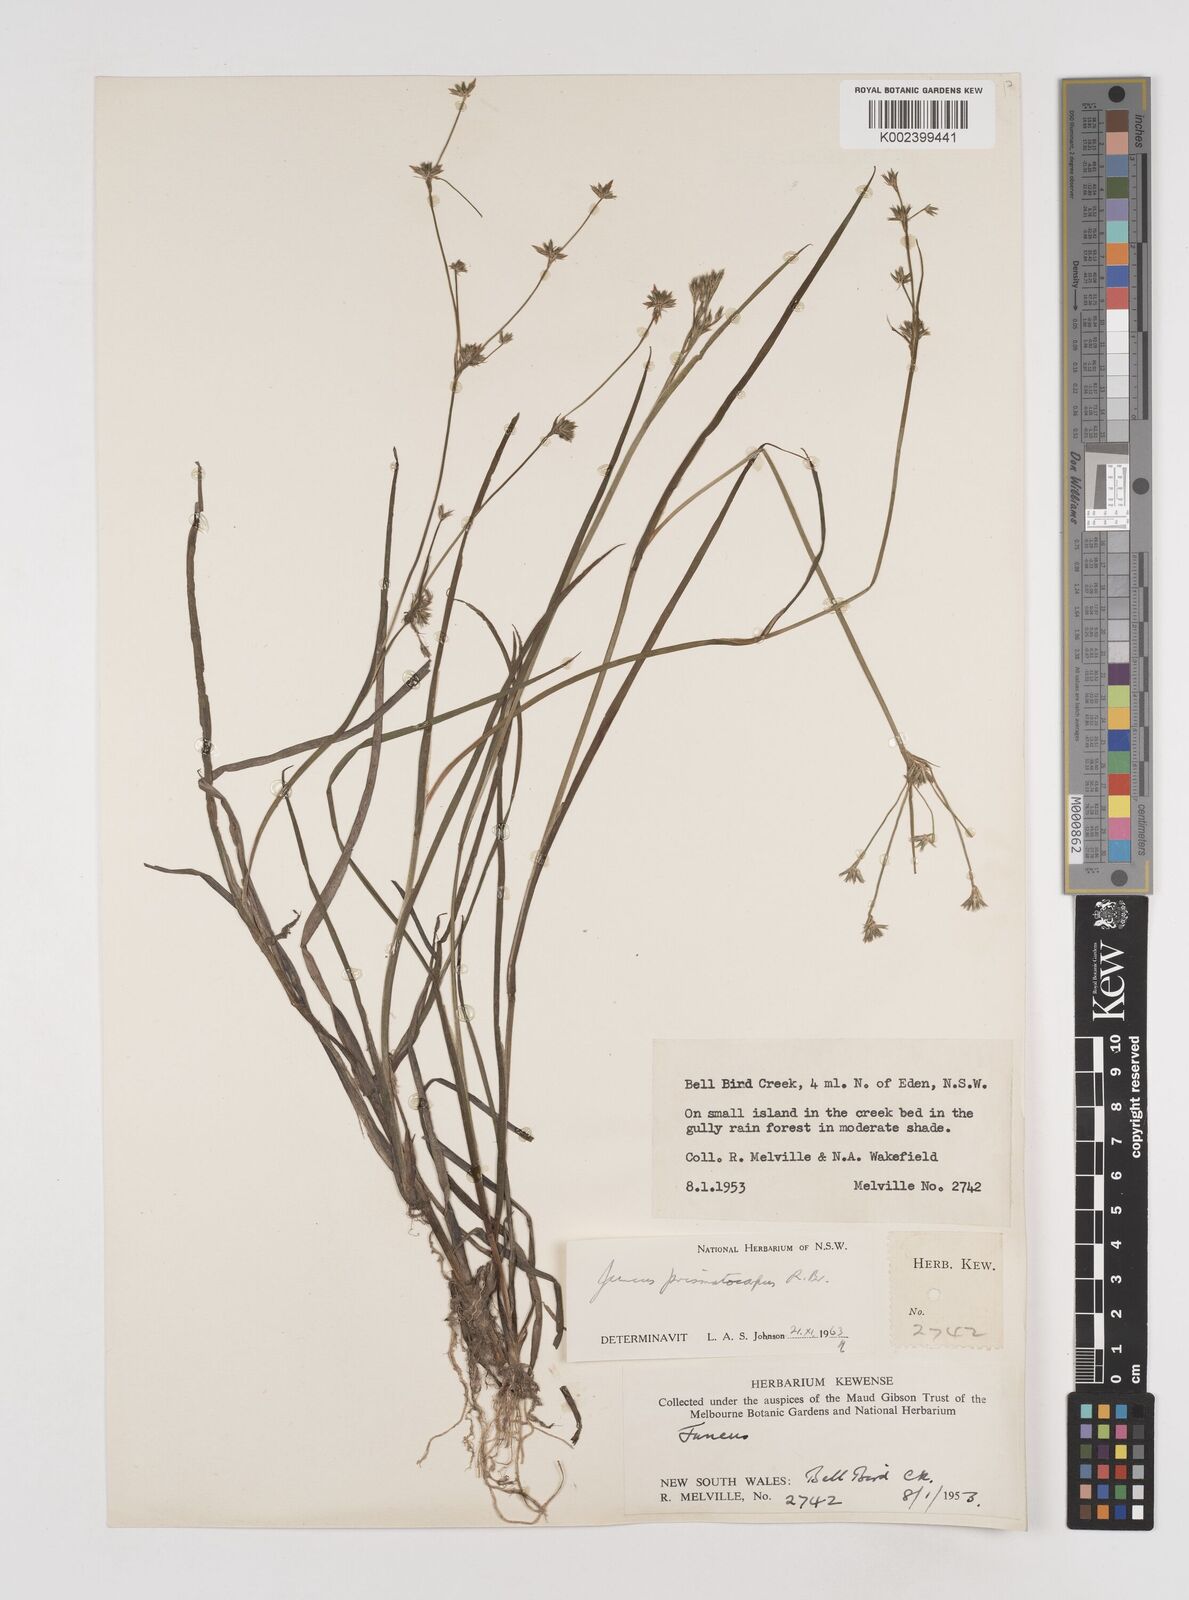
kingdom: Plantae
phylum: Tracheophyta
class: Liliopsida
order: Poales
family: Juncaceae
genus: Juncus
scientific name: Juncus prismatocarpus
